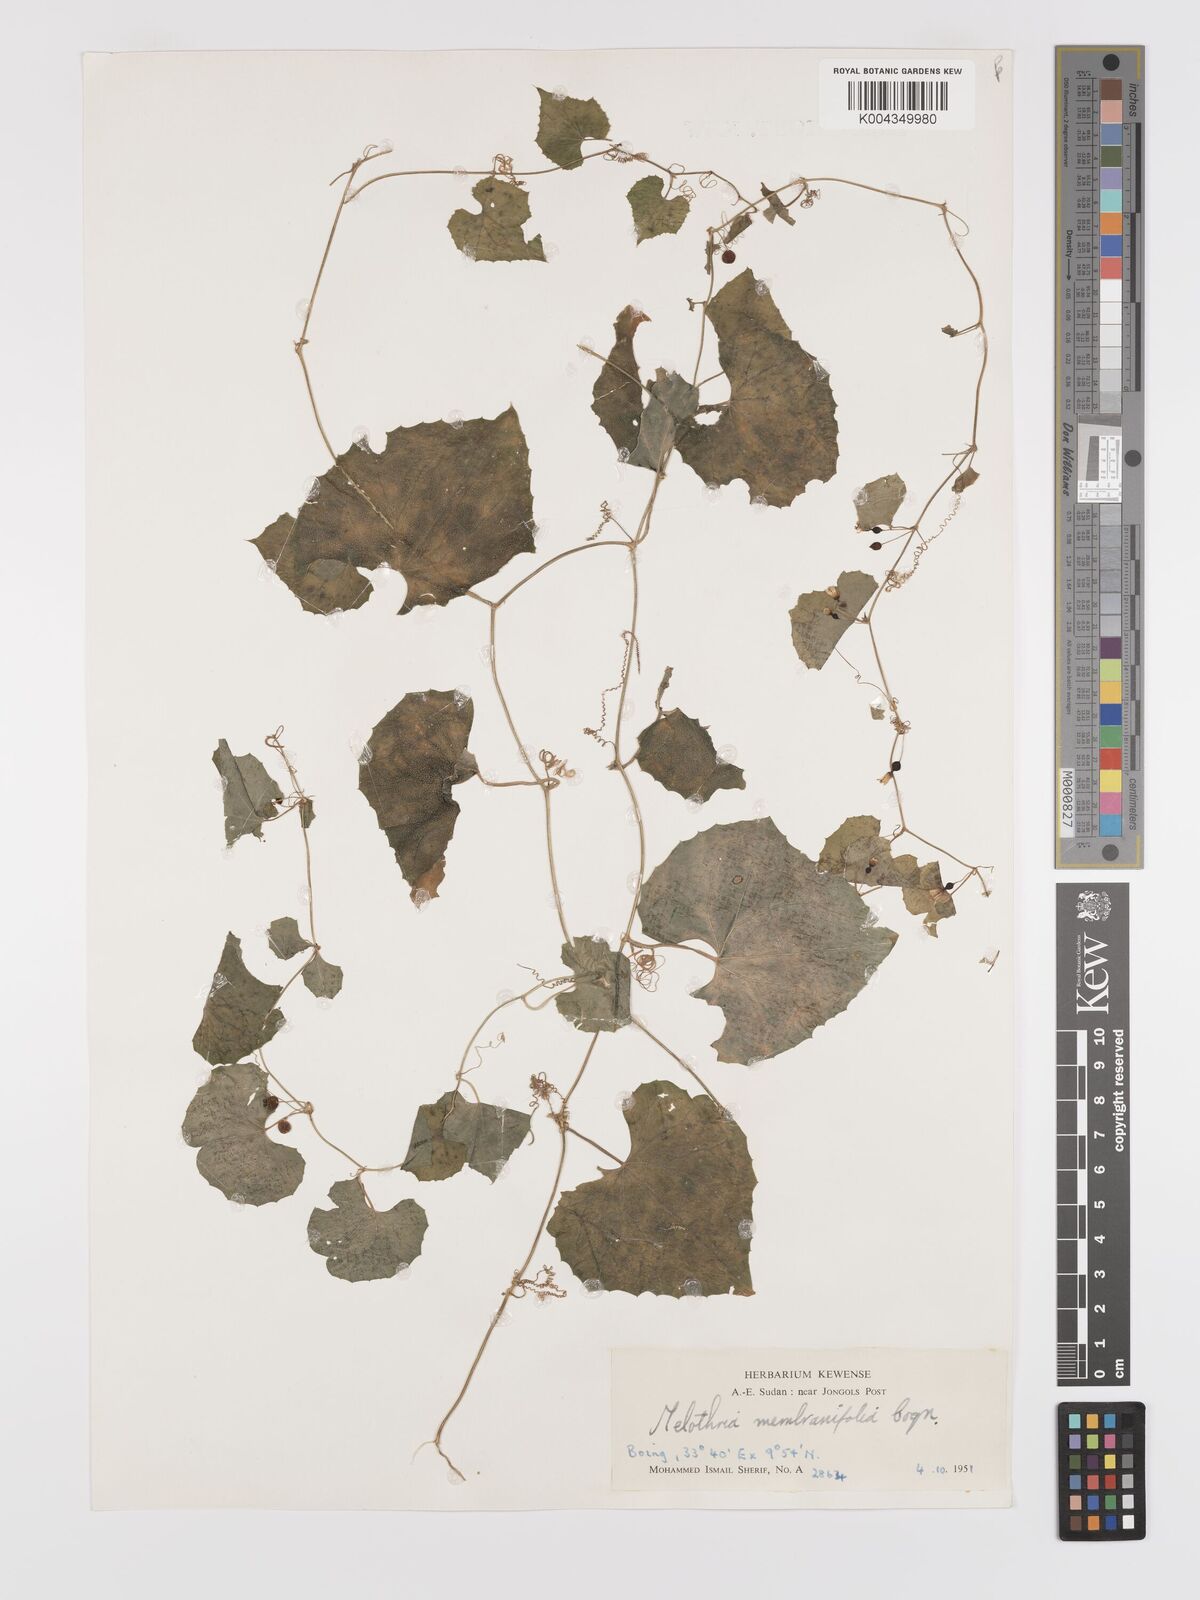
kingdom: Plantae
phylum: Tracheophyta
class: Magnoliopsida
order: Cucurbitales
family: Cucurbitaceae
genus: Zehneria
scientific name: Zehneria scabra
